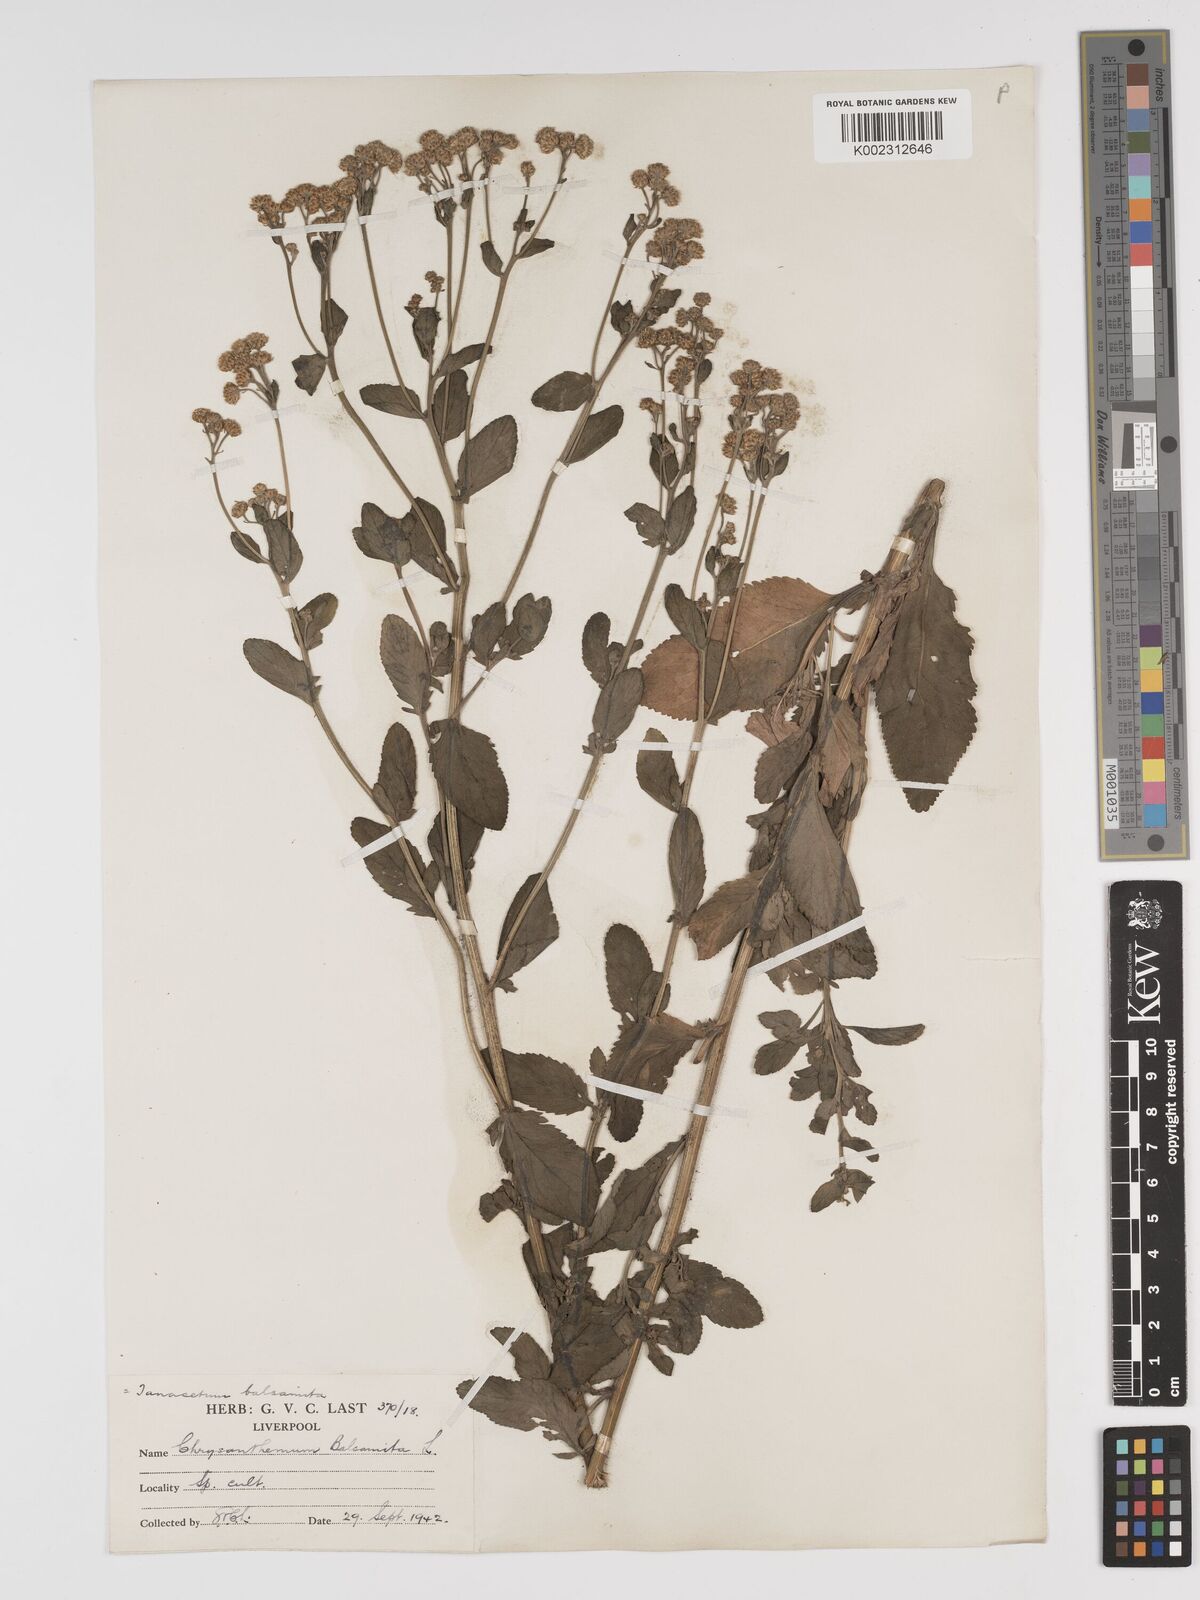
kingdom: Plantae
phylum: Tracheophyta
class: Magnoliopsida
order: Asterales
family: Asteraceae
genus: Tanacetum
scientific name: Tanacetum balsamita
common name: Costmary
